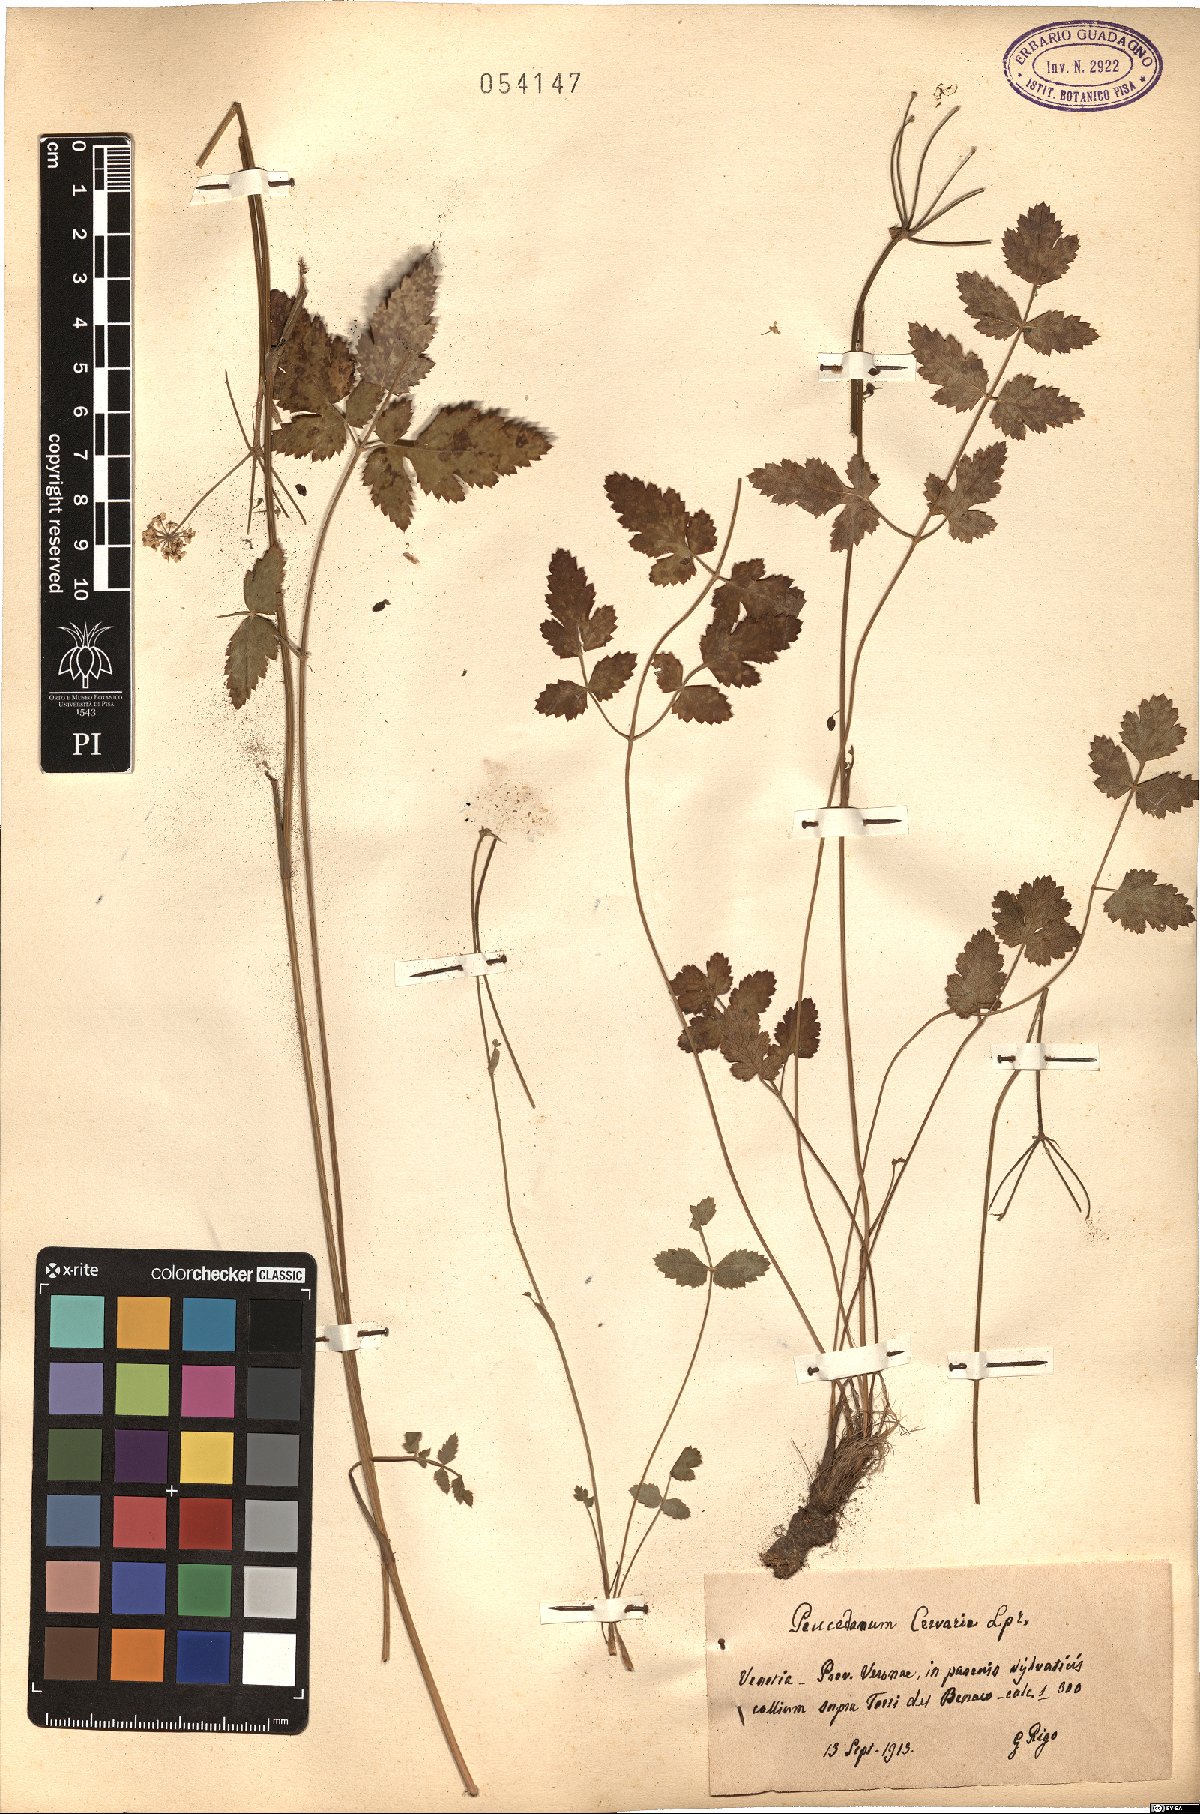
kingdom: Plantae
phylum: Tracheophyta
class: Magnoliopsida
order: Apiales
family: Apiaceae
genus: Cervaria
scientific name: Cervaria rivini
